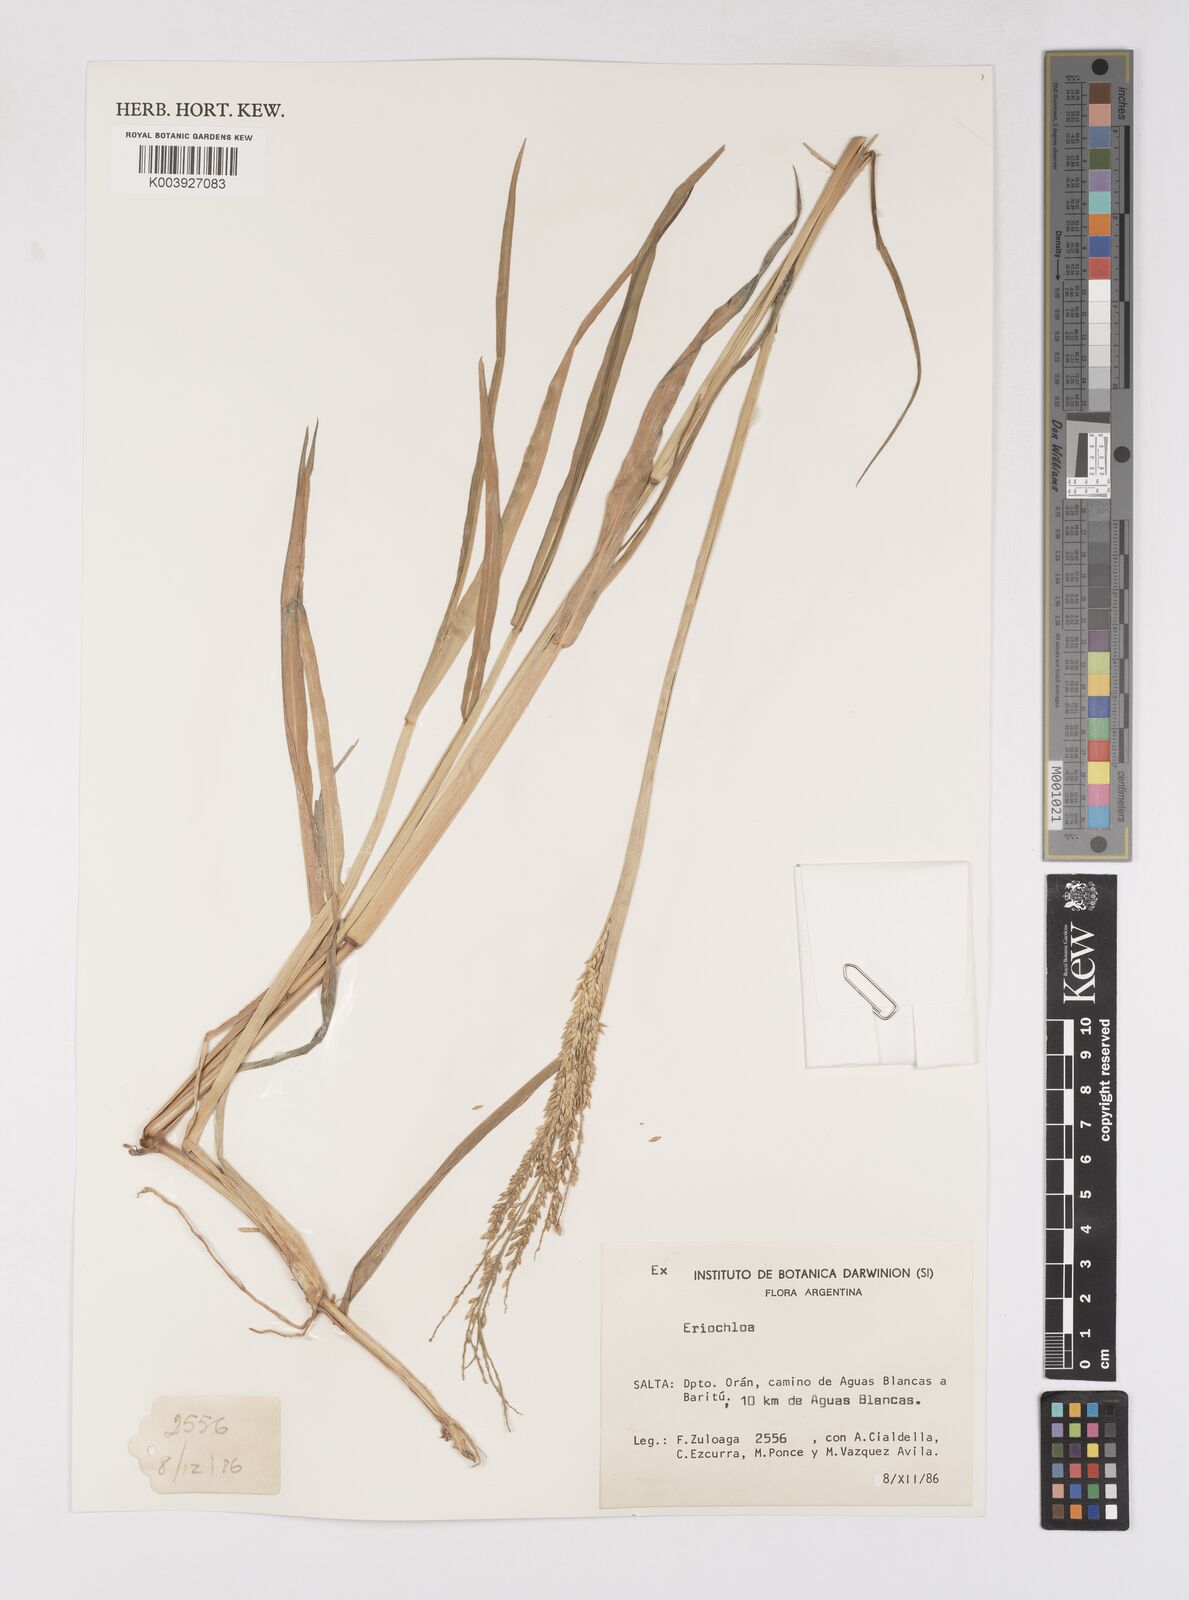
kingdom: Plantae
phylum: Tracheophyta
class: Liliopsida
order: Poales
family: Poaceae
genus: Eriochloa
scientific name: Eriochloa punctata
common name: Louisiana cupgrass
